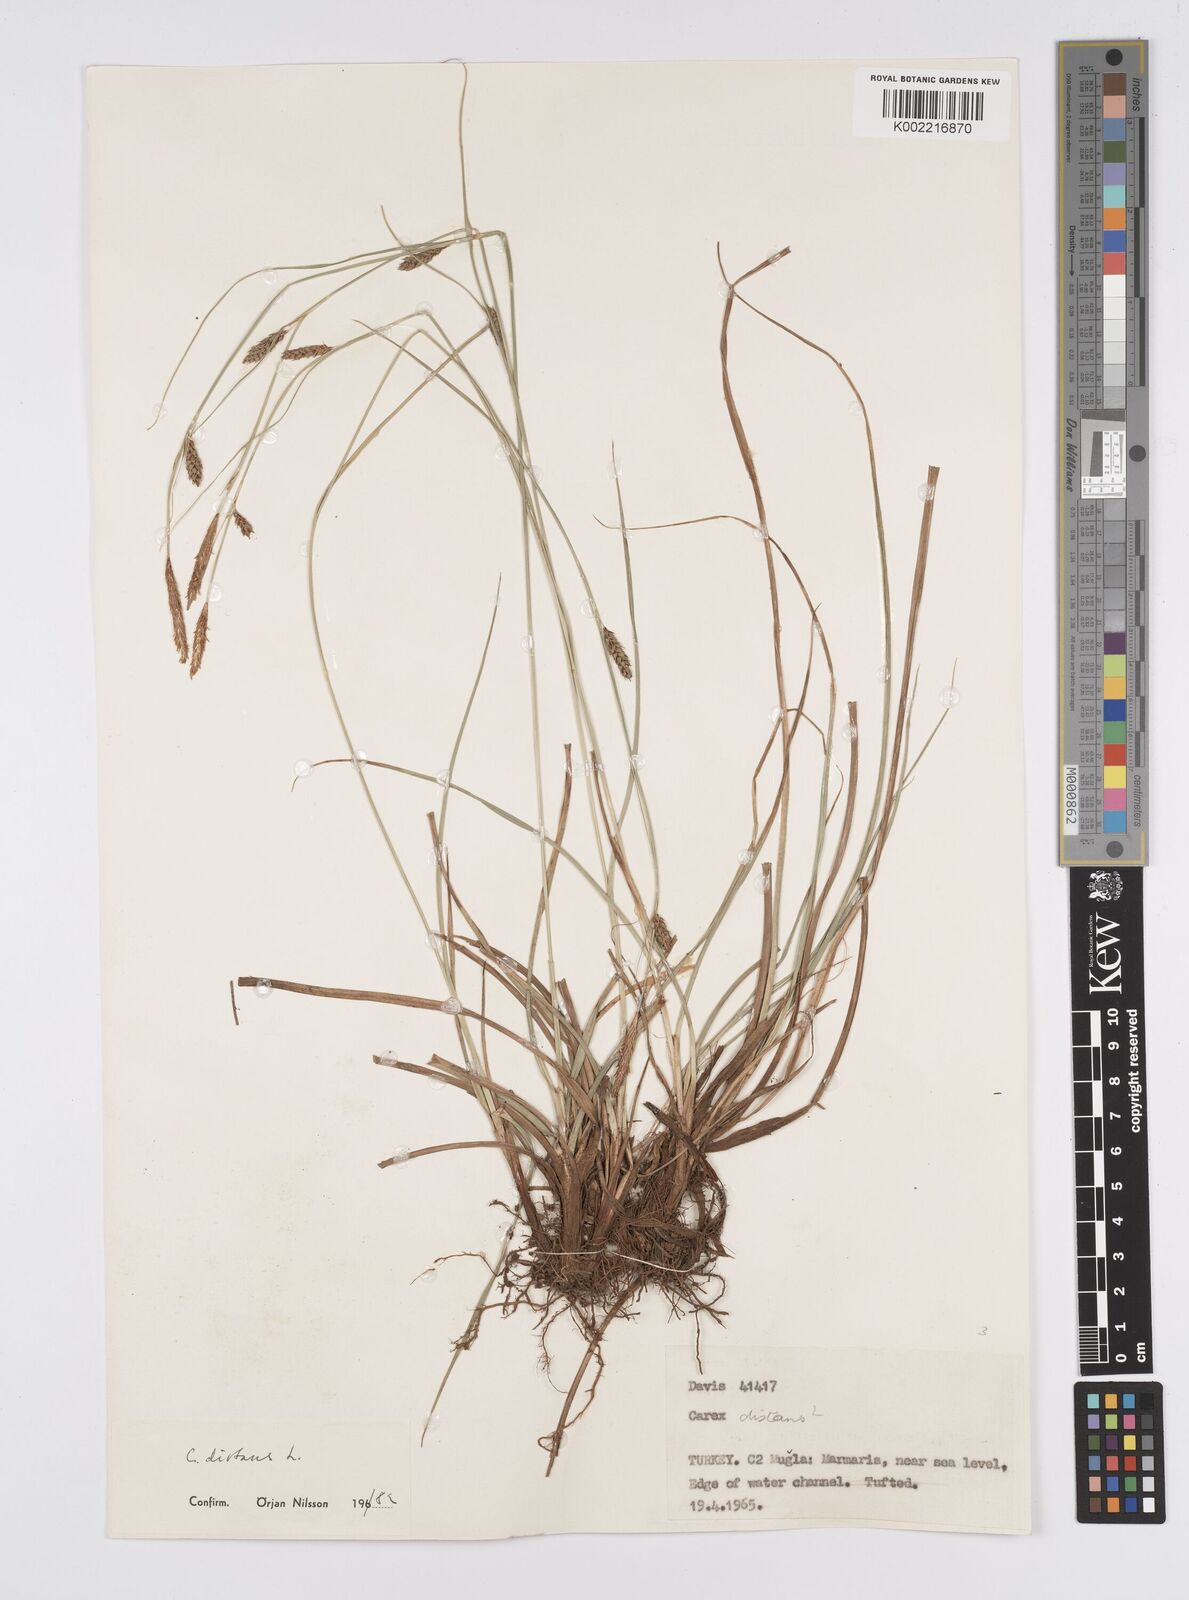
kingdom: Plantae
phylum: Tracheophyta
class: Liliopsida
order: Poales
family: Cyperaceae
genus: Carex
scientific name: Carex distans
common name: Distant sedge
